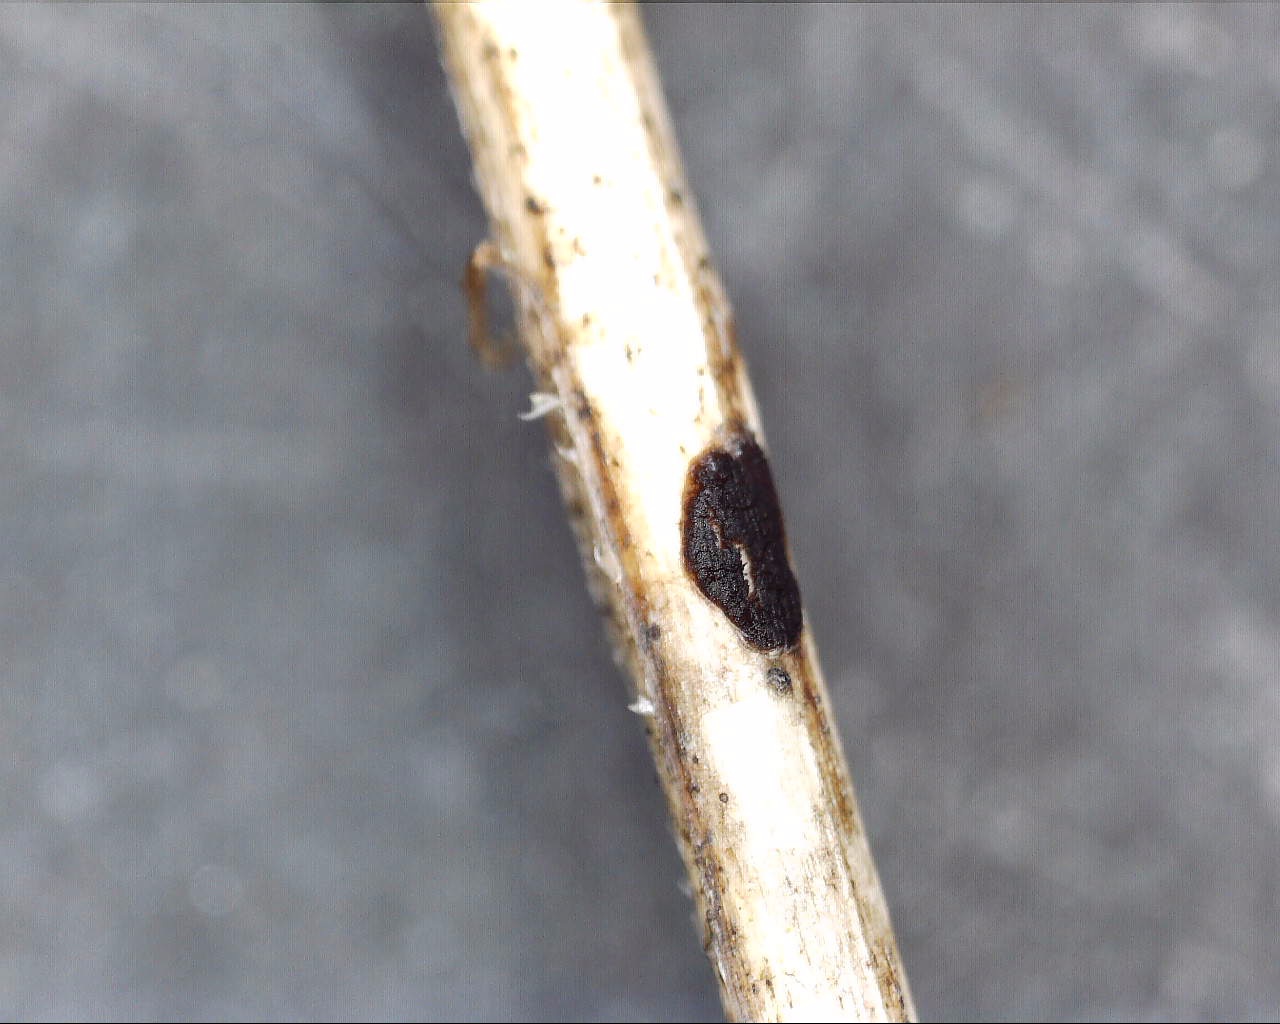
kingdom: Fungi
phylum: Basidiomycota
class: Pucciniomycetes
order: Pucciniales
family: Pucciniaceae
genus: Puccinia
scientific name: Puccinia difformis
